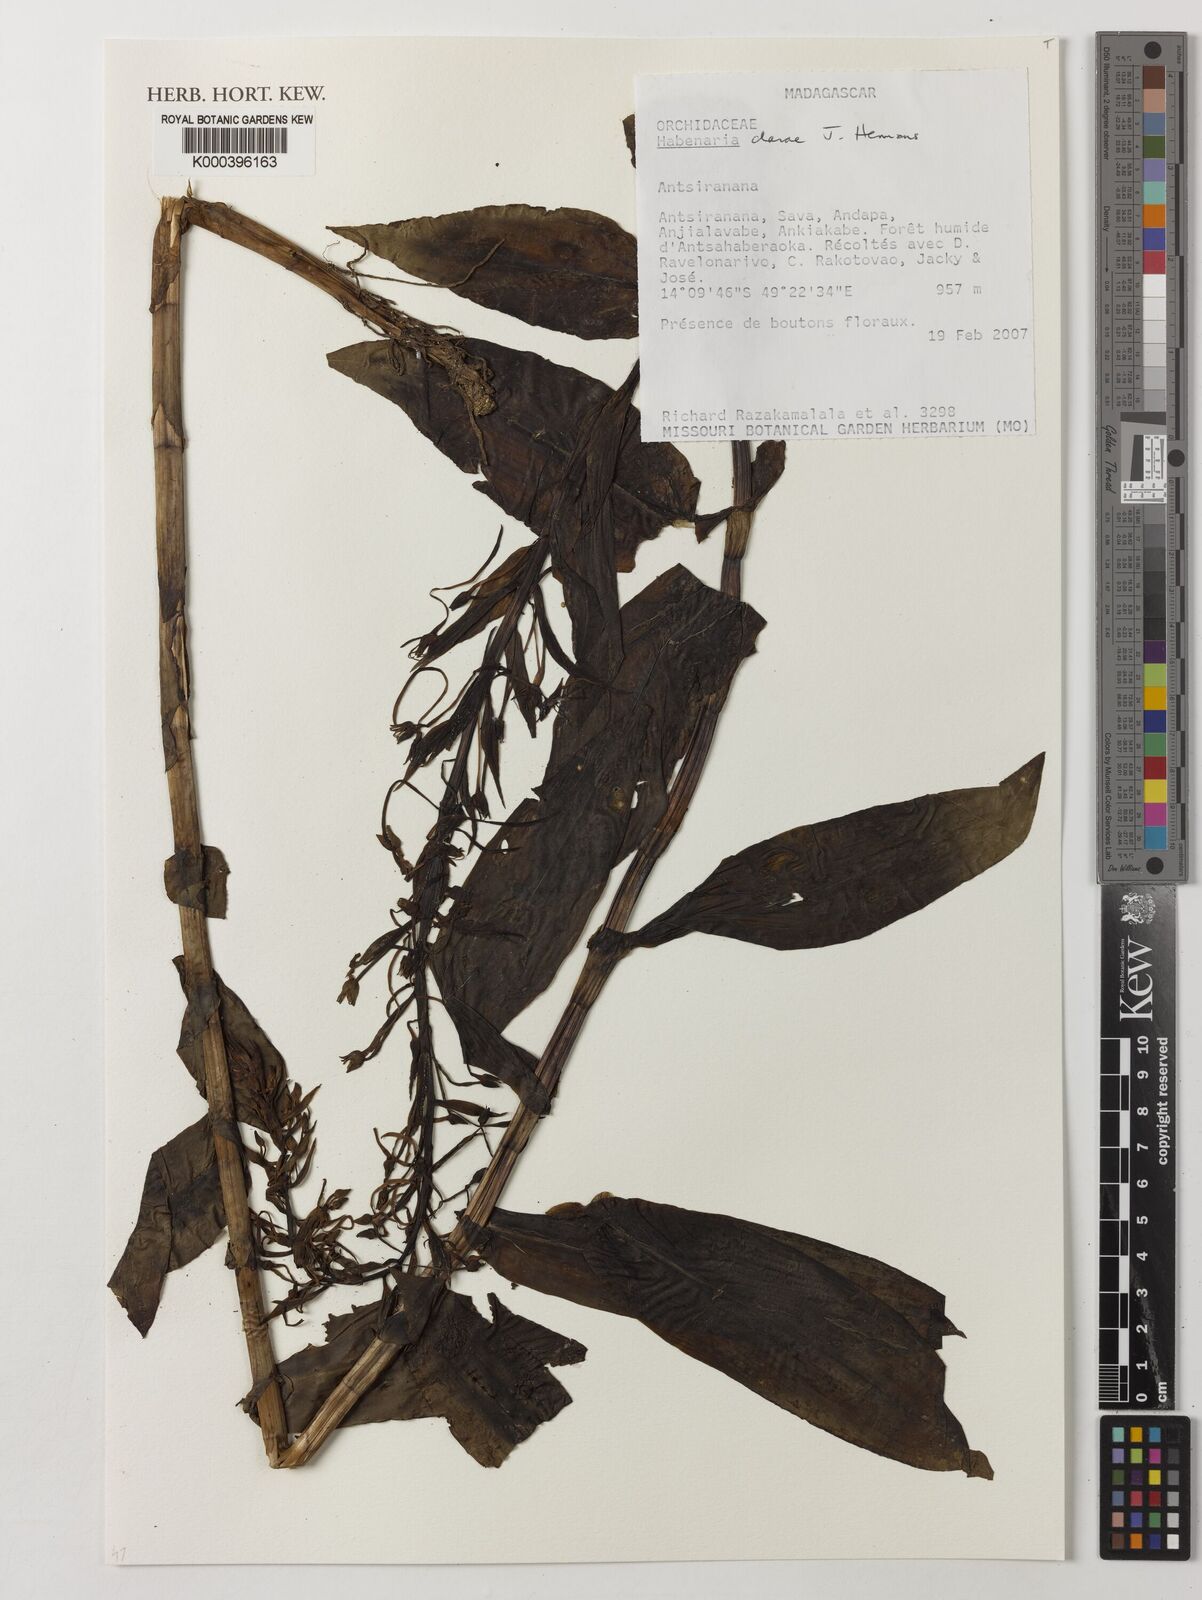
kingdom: Plantae
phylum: Tracheophyta
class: Liliopsida
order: Asparagales
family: Orchidaceae
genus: Habenaria
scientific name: Habenaria clareae
